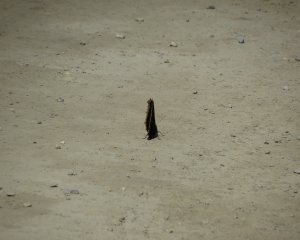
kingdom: Animalia
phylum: Arthropoda
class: Insecta
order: Lepidoptera
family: Nymphalidae
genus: Nymphalis
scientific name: Nymphalis antiopa
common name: Mourning Cloak
